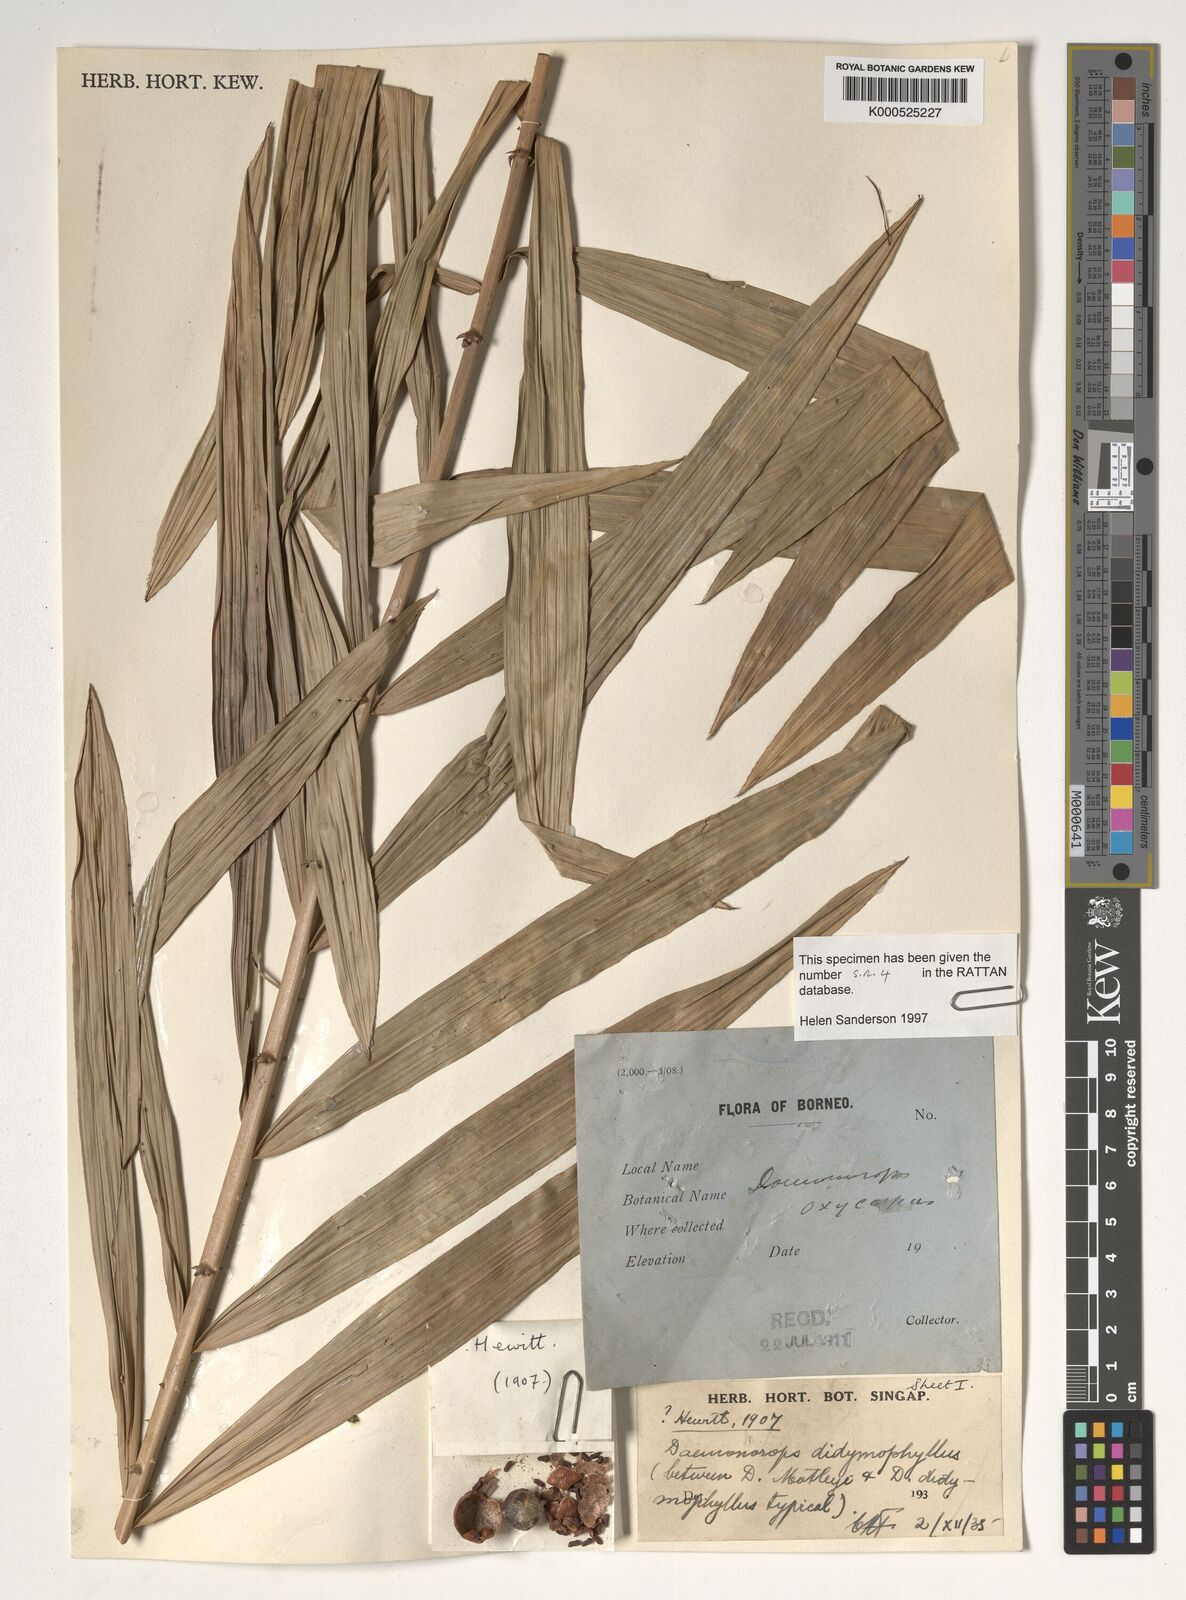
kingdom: Plantae
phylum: Tracheophyta
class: Liliopsida
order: Arecales
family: Arecaceae
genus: Calamus
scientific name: Calamus gracilipes
